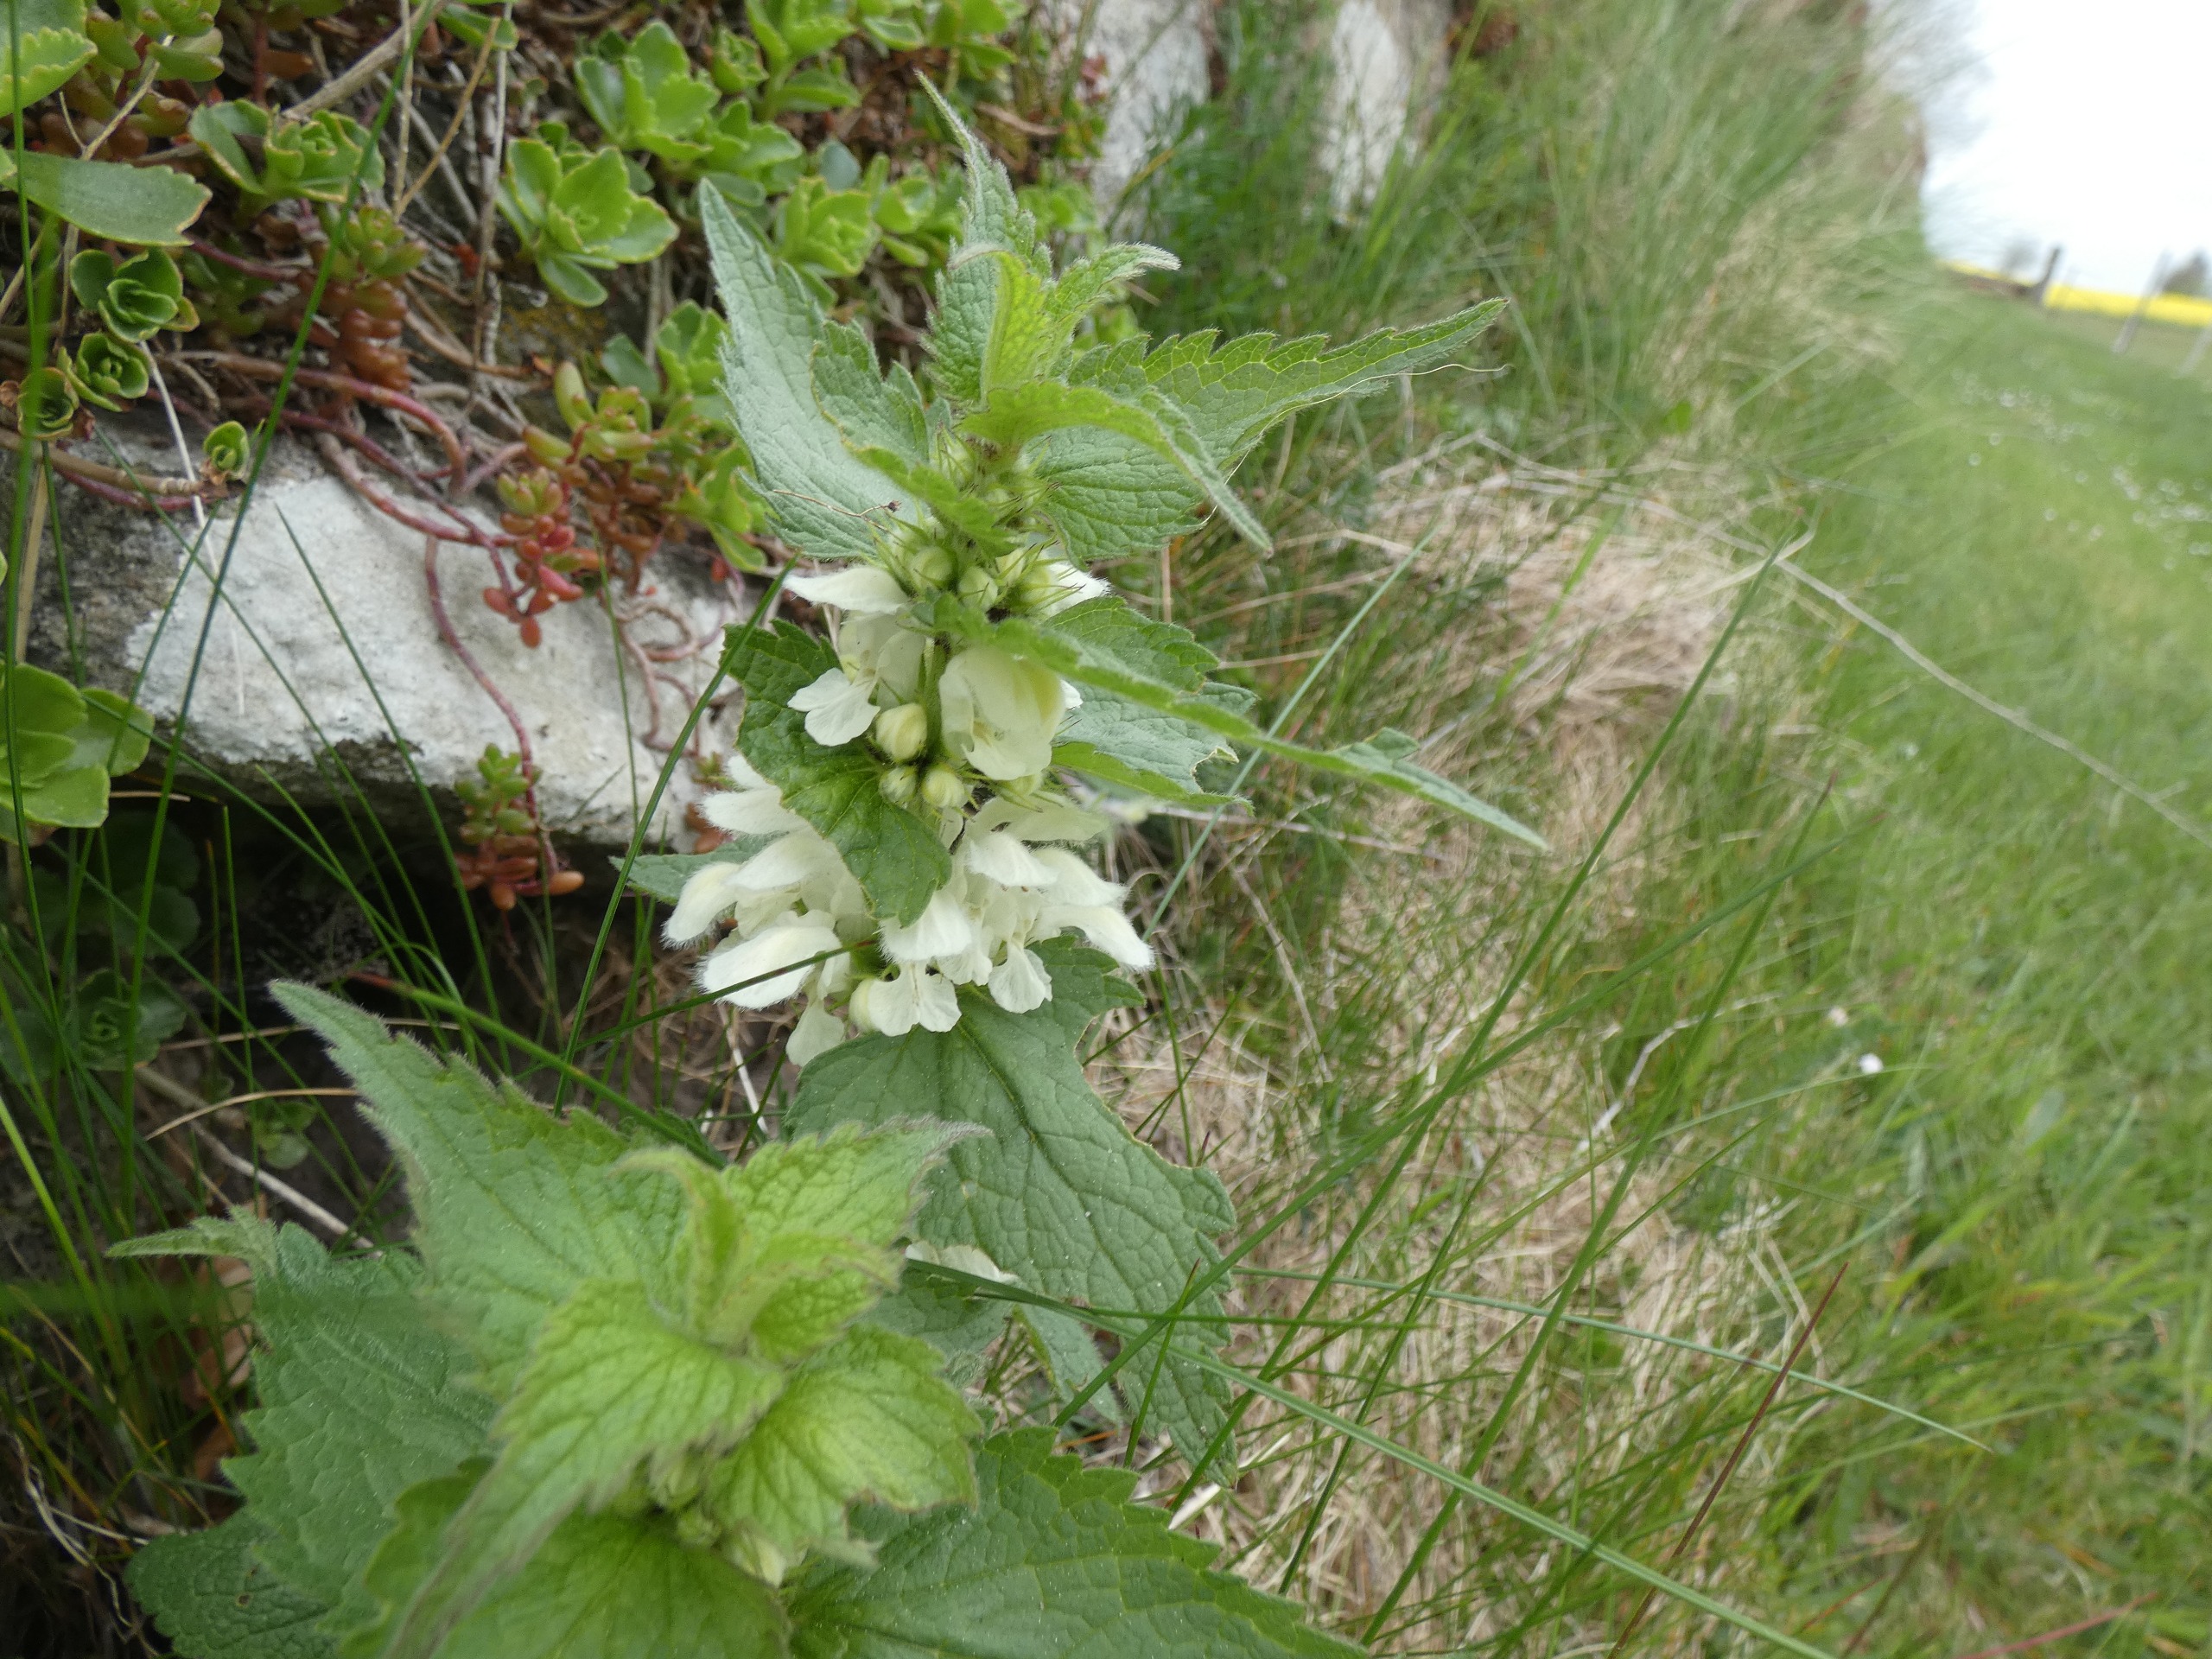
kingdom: Plantae
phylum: Tracheophyta
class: Magnoliopsida
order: Lamiales
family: Lamiaceae
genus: Lamium
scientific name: Lamium album
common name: Døvnælde
